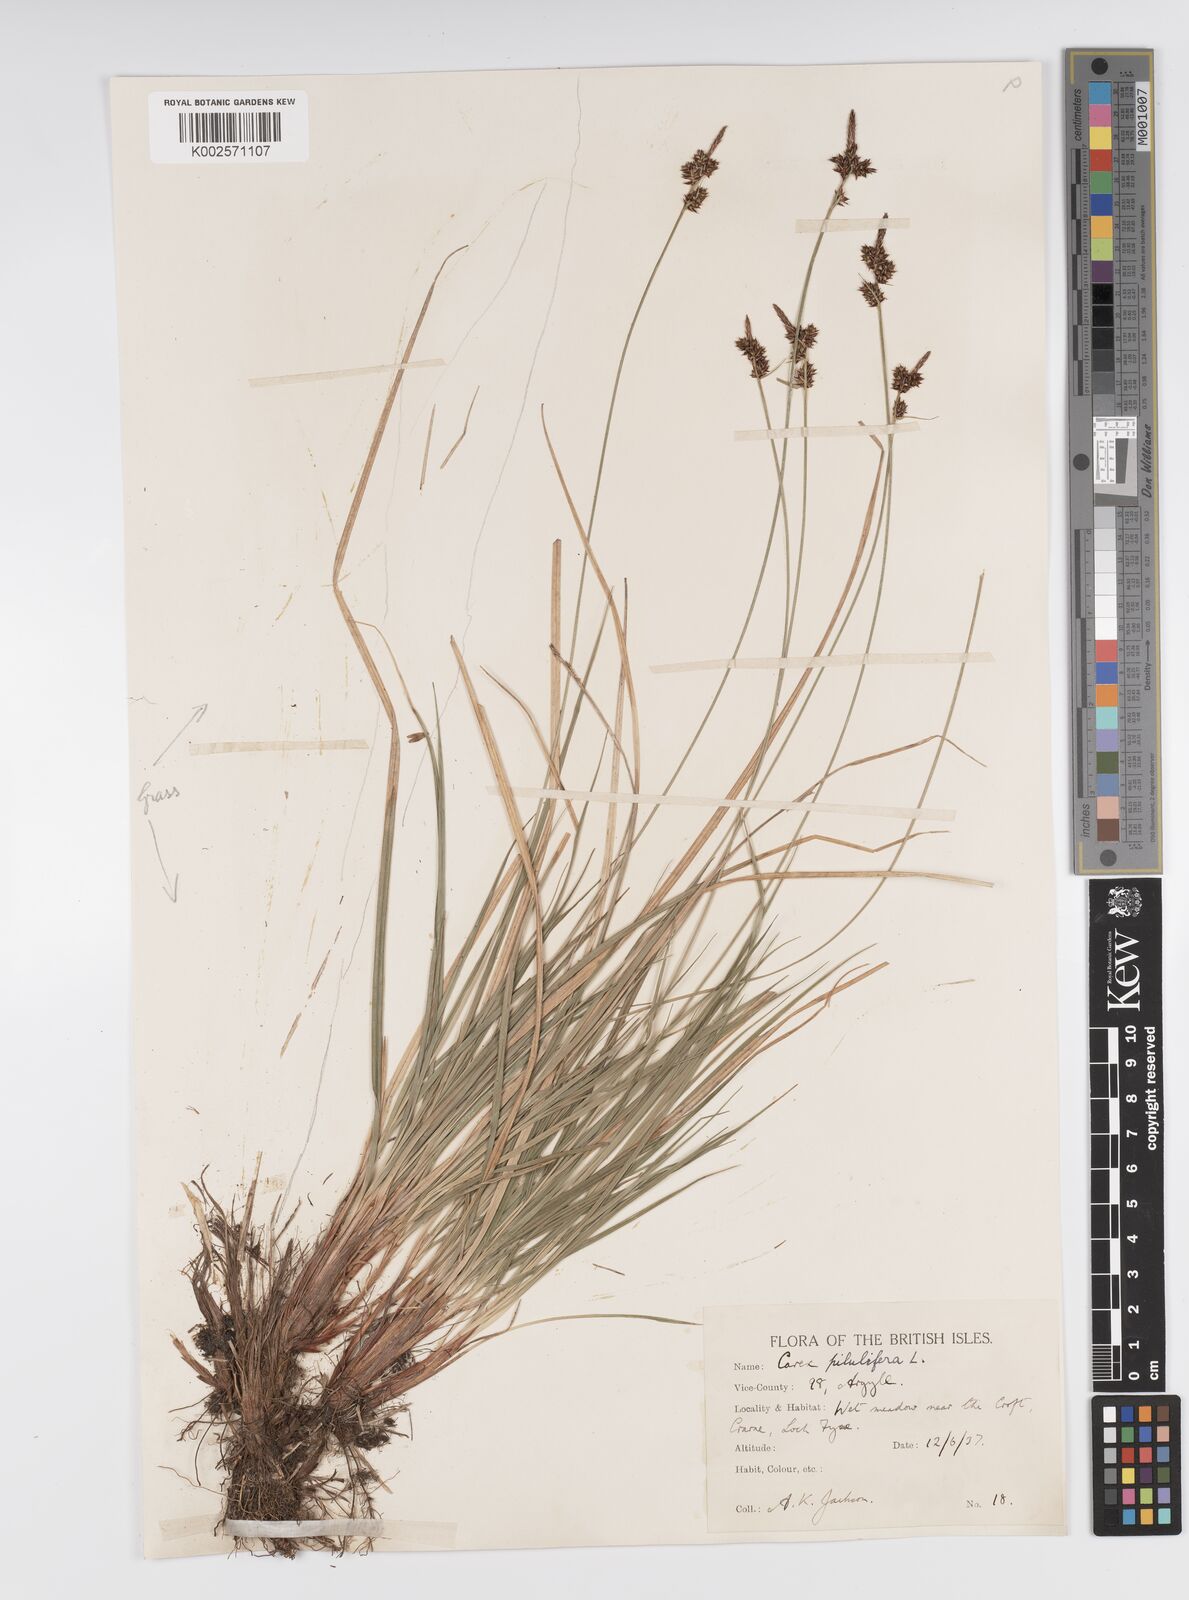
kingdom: Plantae
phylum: Tracheophyta
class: Liliopsida
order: Poales
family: Cyperaceae
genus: Carex
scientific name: Carex pilulifera
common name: Pill sedge
